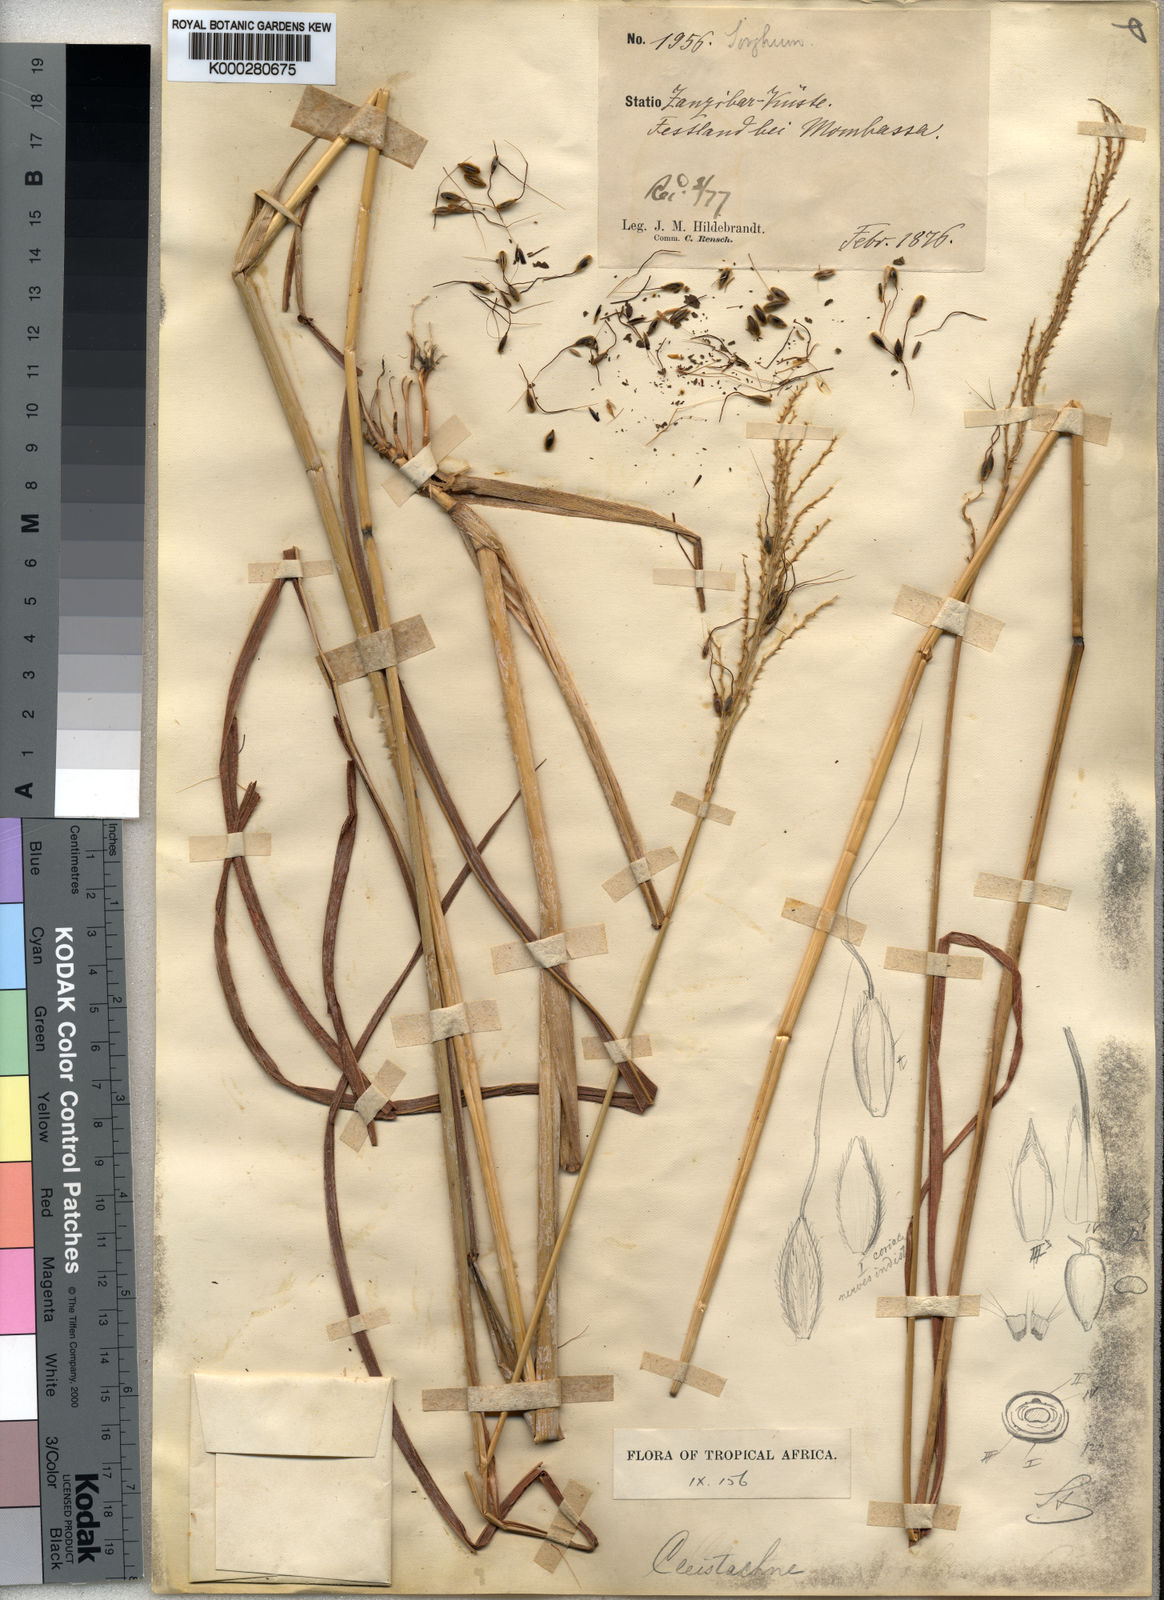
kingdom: Plantae
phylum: Tracheophyta
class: Liliopsida
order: Poales
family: Poaceae
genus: Cleistachne
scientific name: Cleistachne sorghoides
